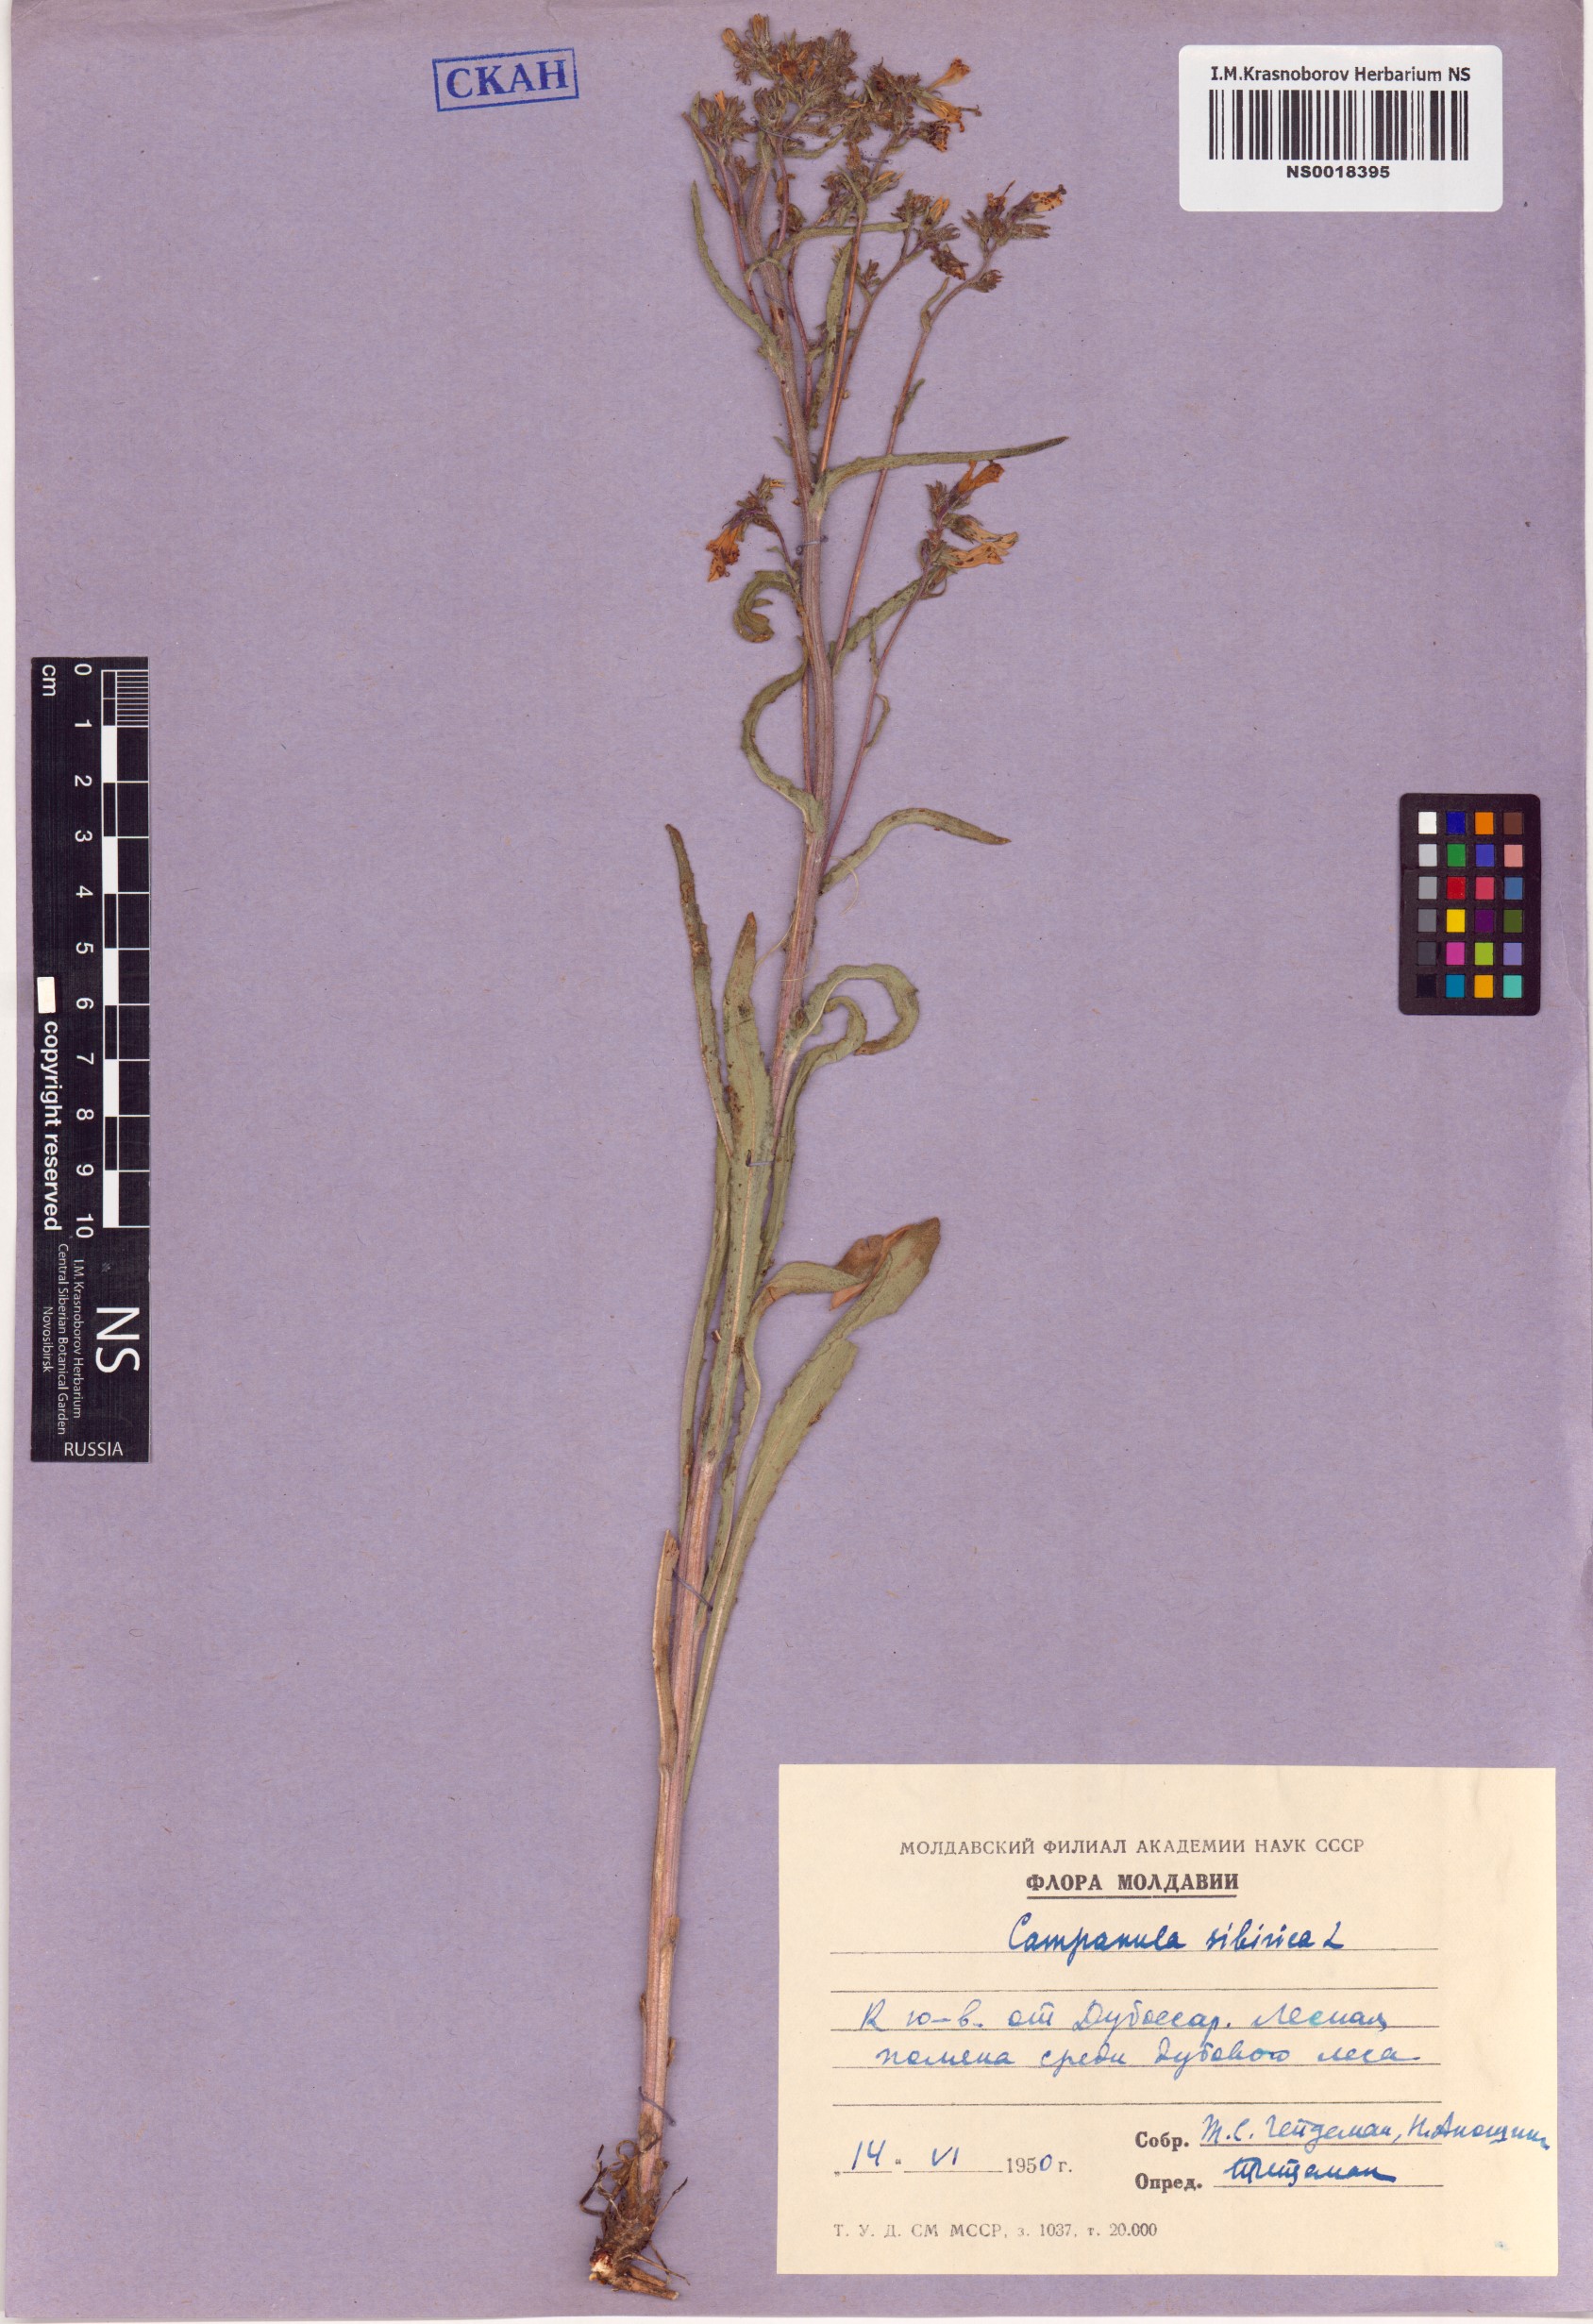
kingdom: Plantae
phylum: Tracheophyta
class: Magnoliopsida
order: Asterales
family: Campanulaceae
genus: Campanula
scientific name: Campanula sibirica
